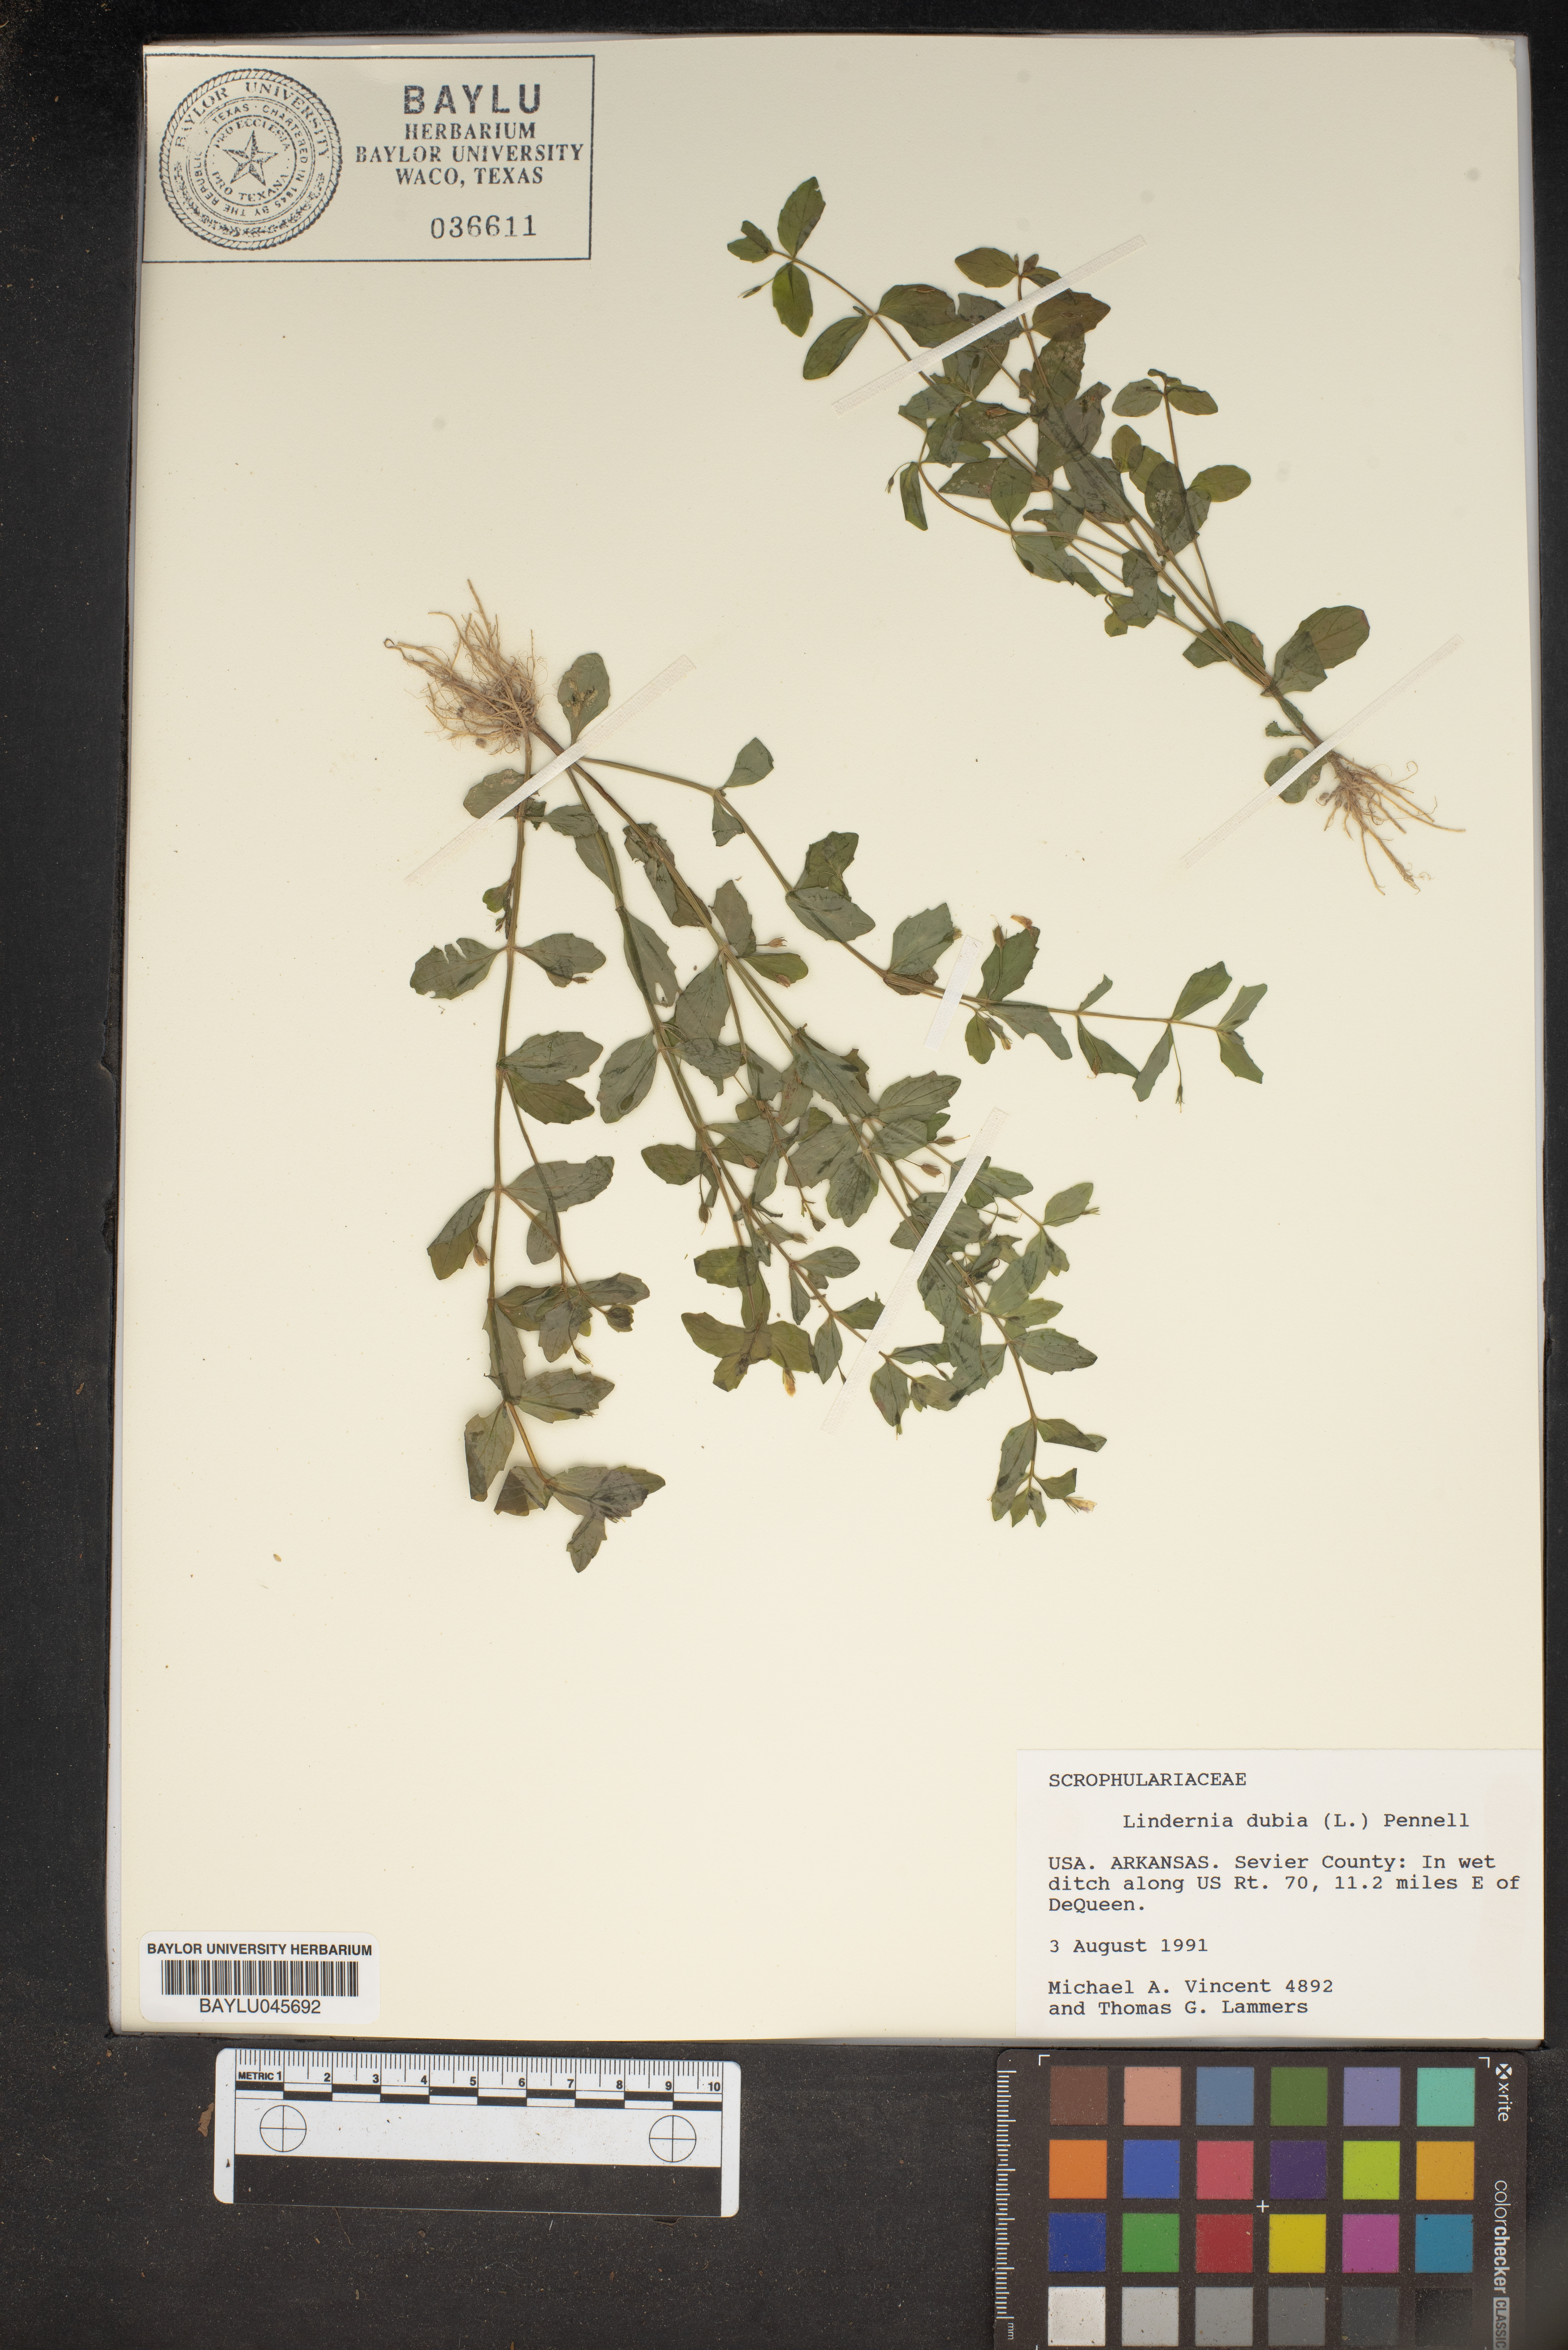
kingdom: Plantae
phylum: Tracheophyta
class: Magnoliopsida
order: Lamiales
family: Linderniaceae
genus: Lindernia
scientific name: Lindernia dubia
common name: Annual false pimpernel
